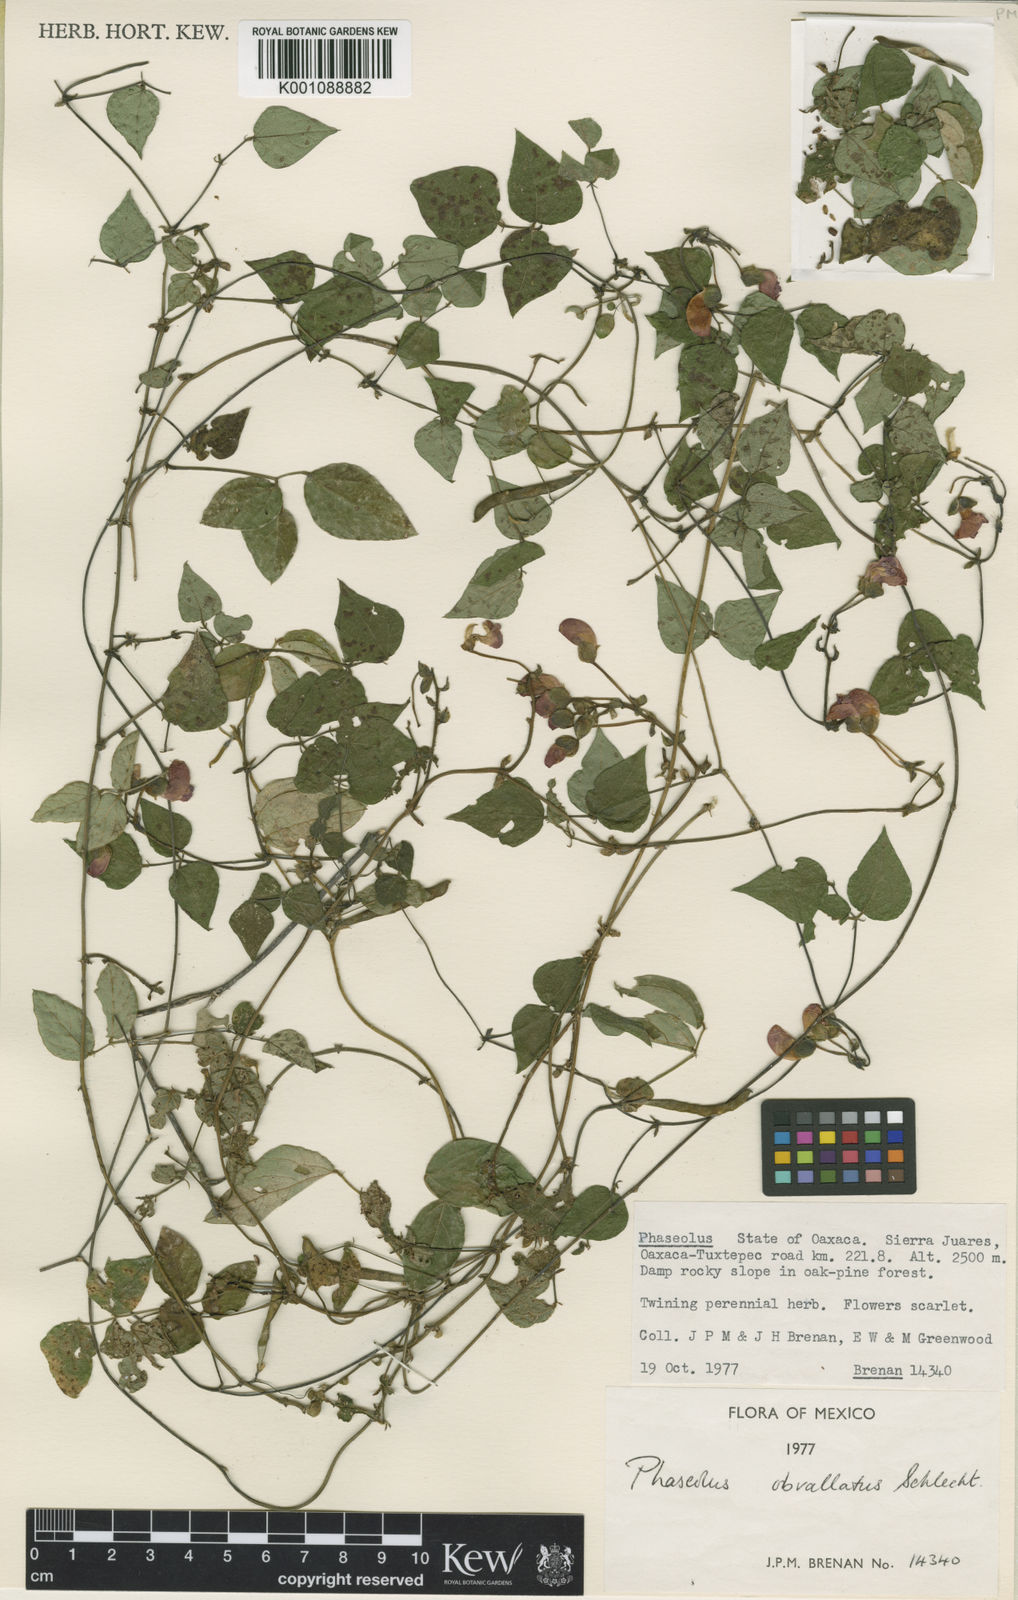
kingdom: Plantae
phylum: Tracheophyta
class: Magnoliopsida
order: Fabales
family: Fabaceae
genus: Phaseolus
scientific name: Phaseolus coccineus
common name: Runner bean
